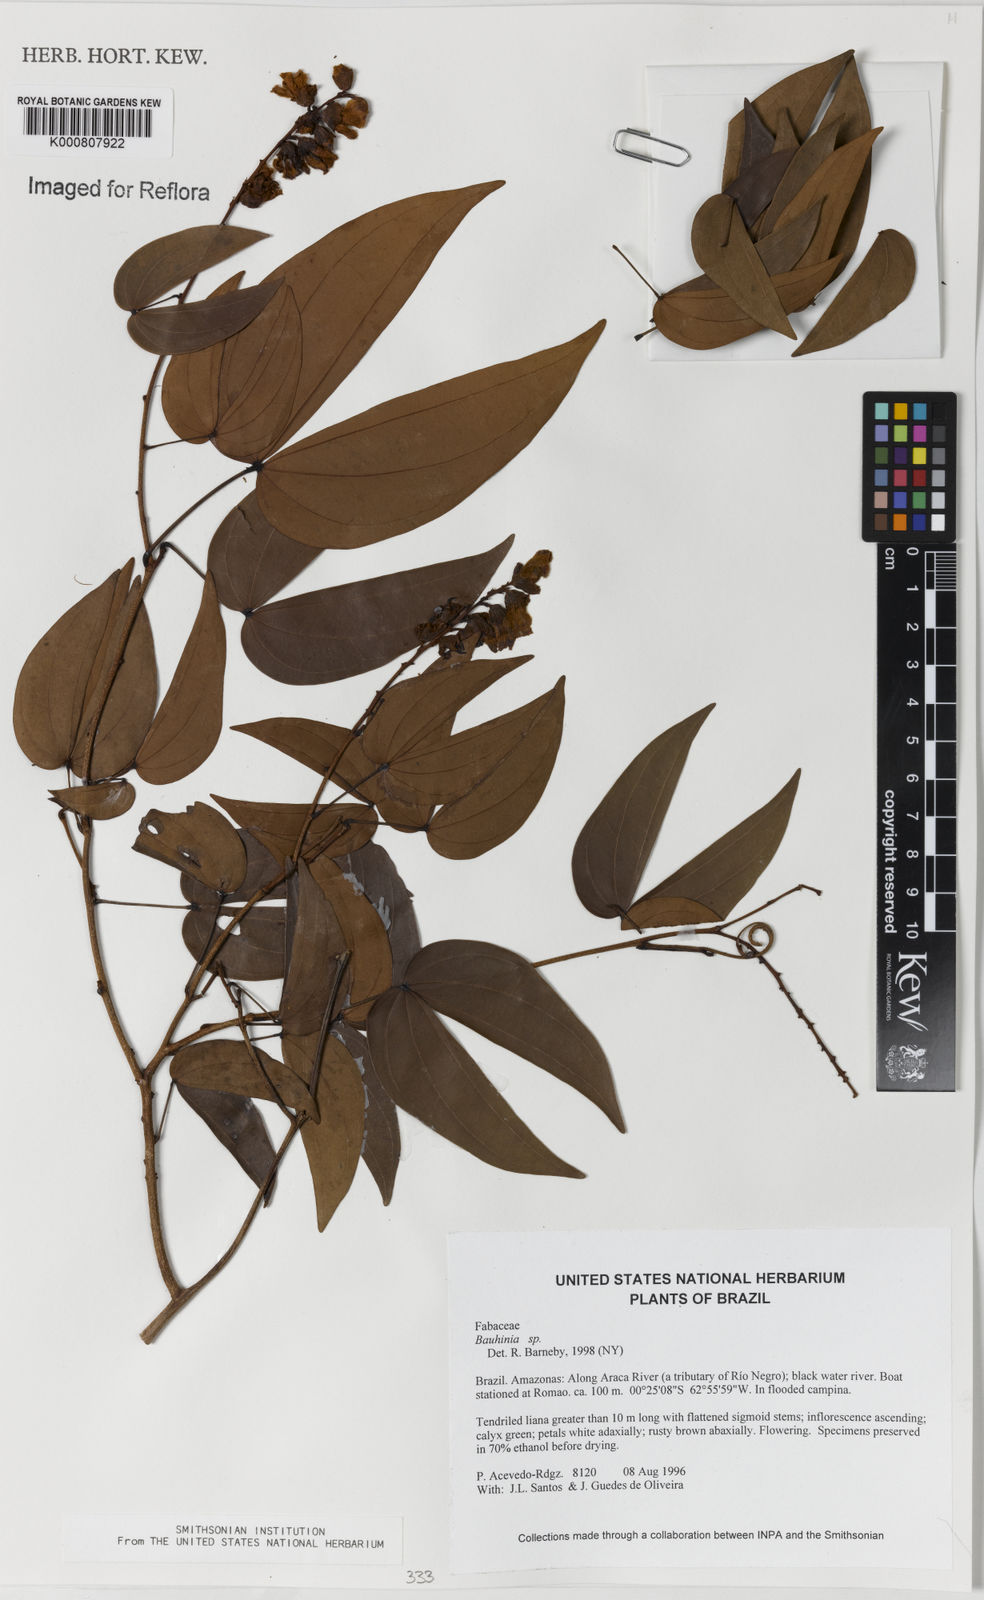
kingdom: Plantae
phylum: Tracheophyta
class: Magnoliopsida
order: Fabales
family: Fabaceae
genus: Schnella
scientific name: Schnella splendens
